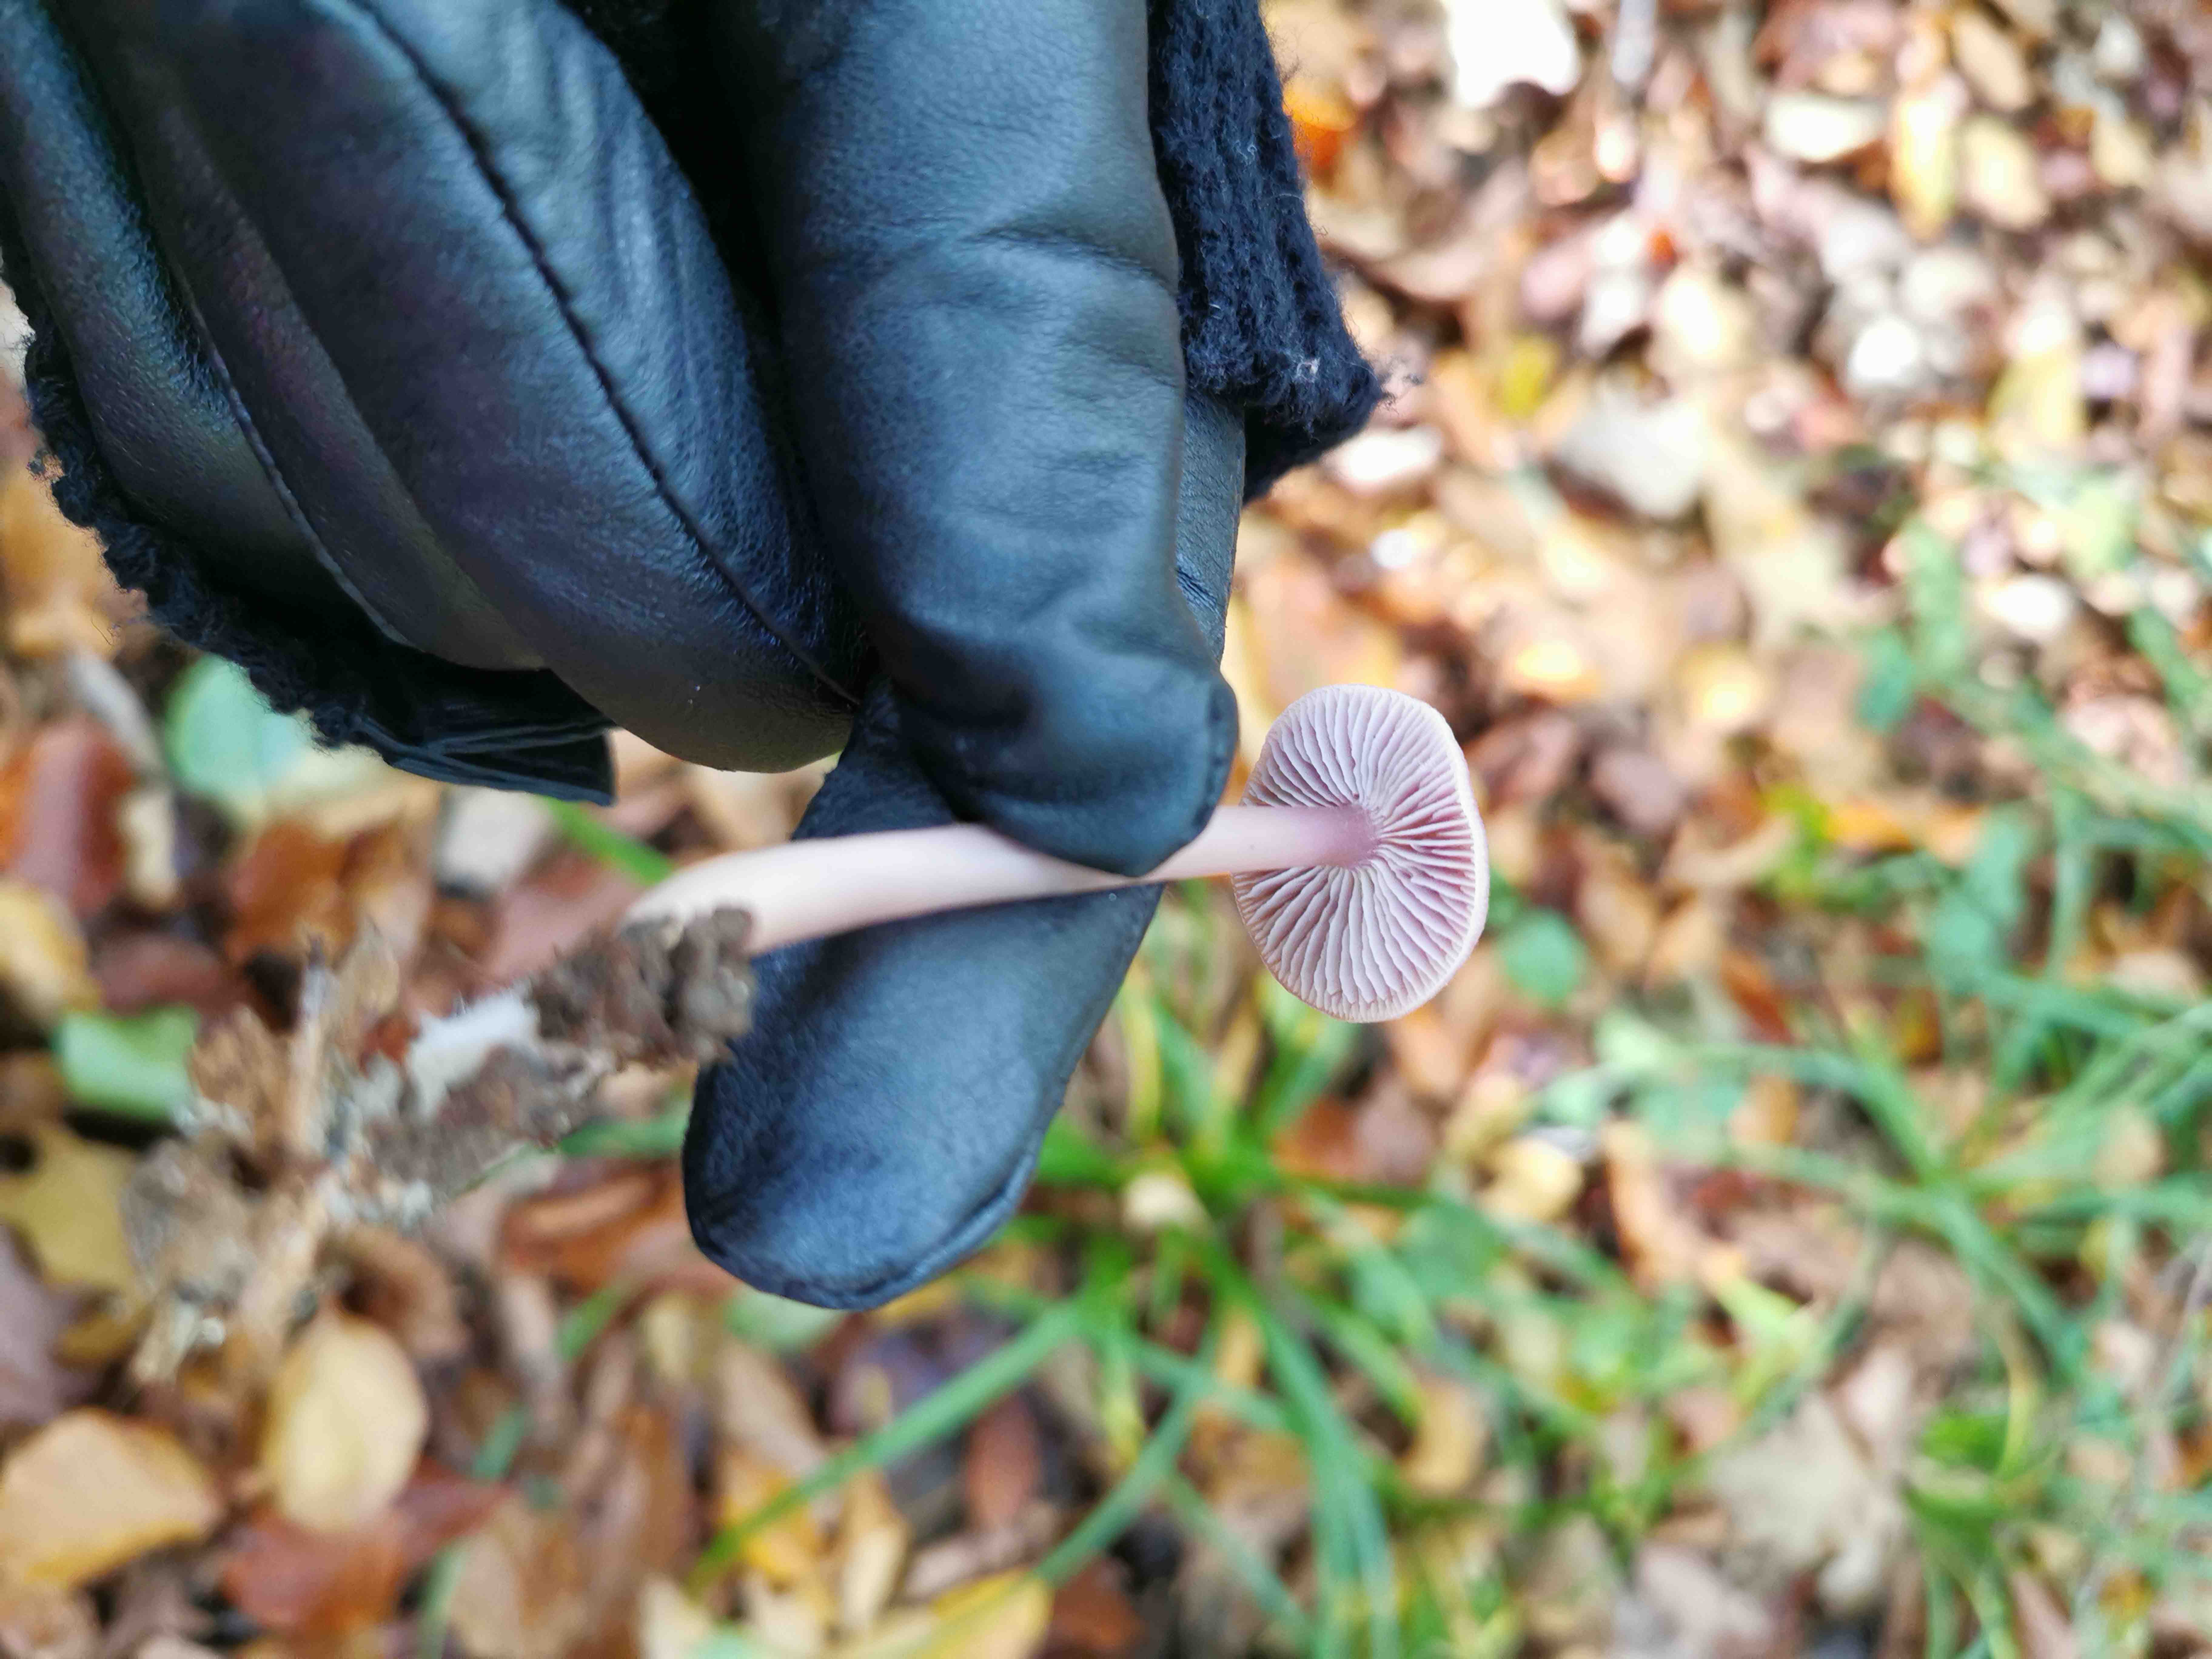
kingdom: Fungi
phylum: Basidiomycota
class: Agaricomycetes
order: Agaricales
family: Mycenaceae
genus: Mycena
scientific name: Mycena rosea
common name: rosa huesvamp
